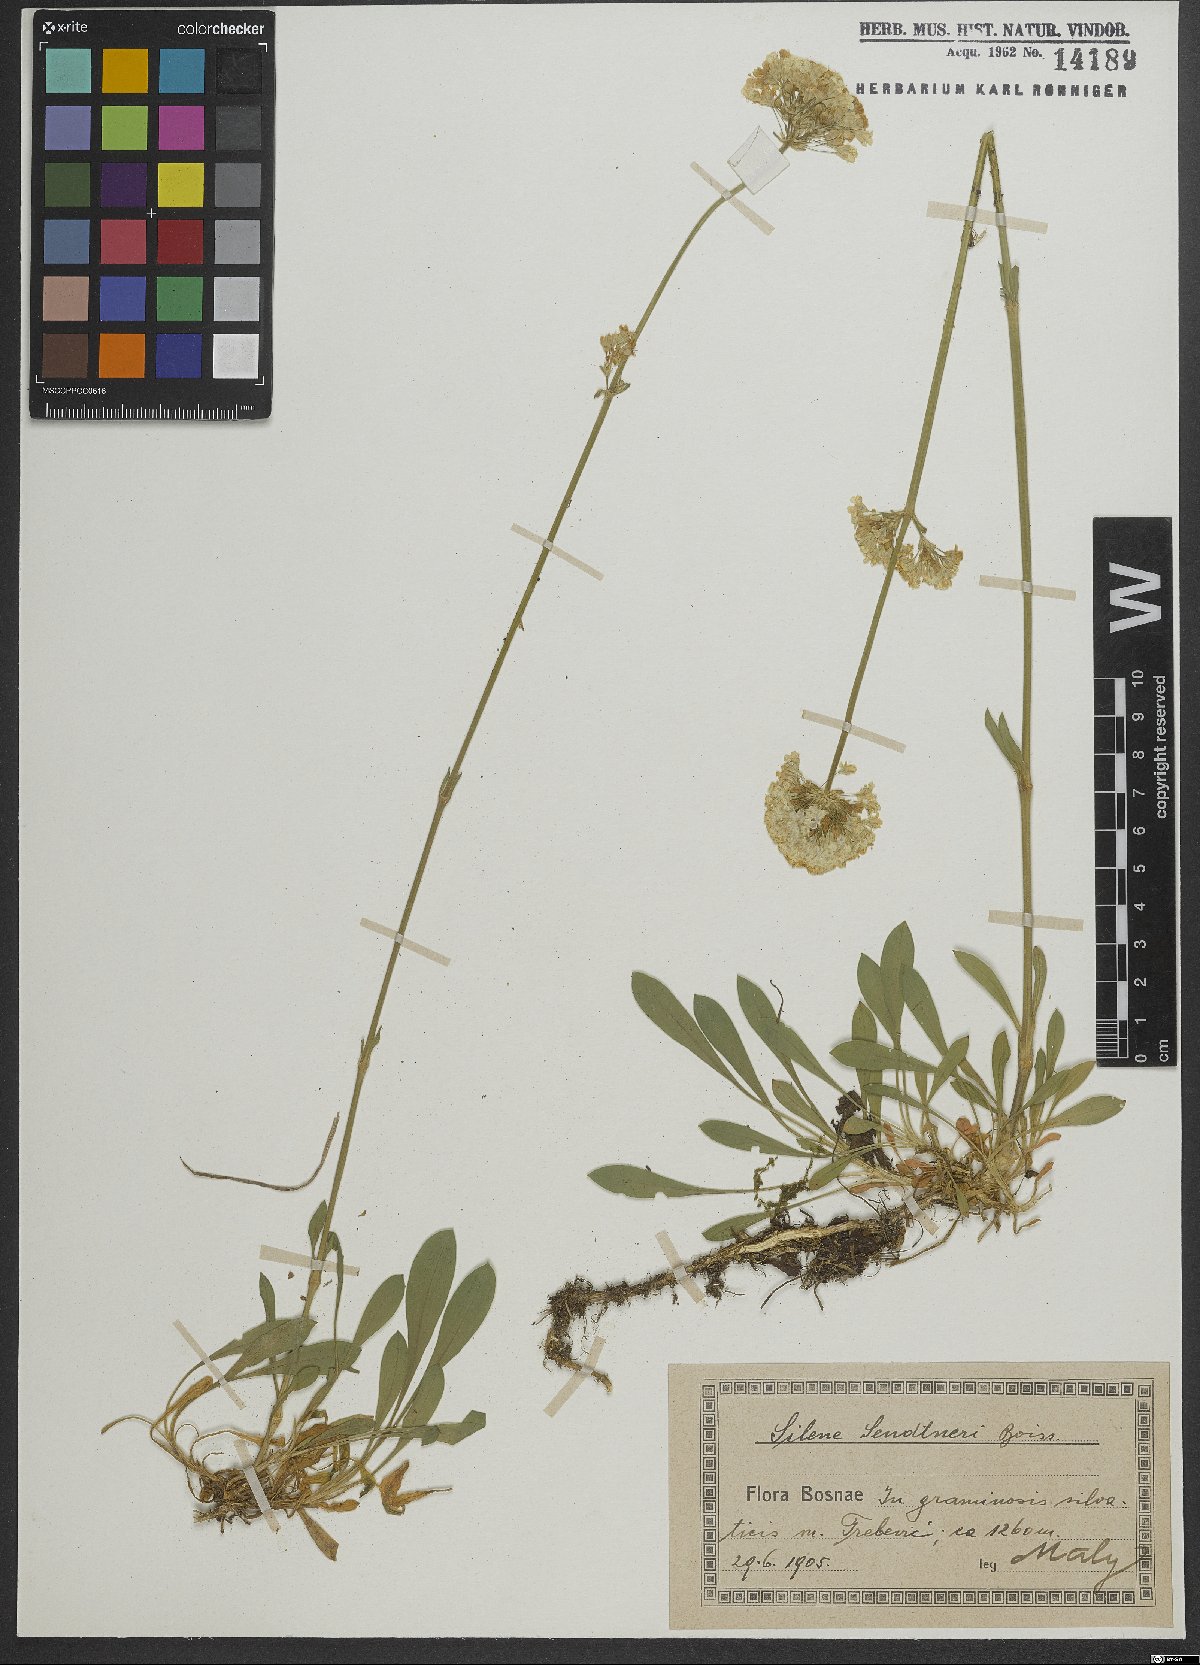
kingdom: Plantae
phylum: Tracheophyta
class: Magnoliopsida
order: Caryophyllales
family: Caryophyllaceae
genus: Silene
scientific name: Silene sendtneri
